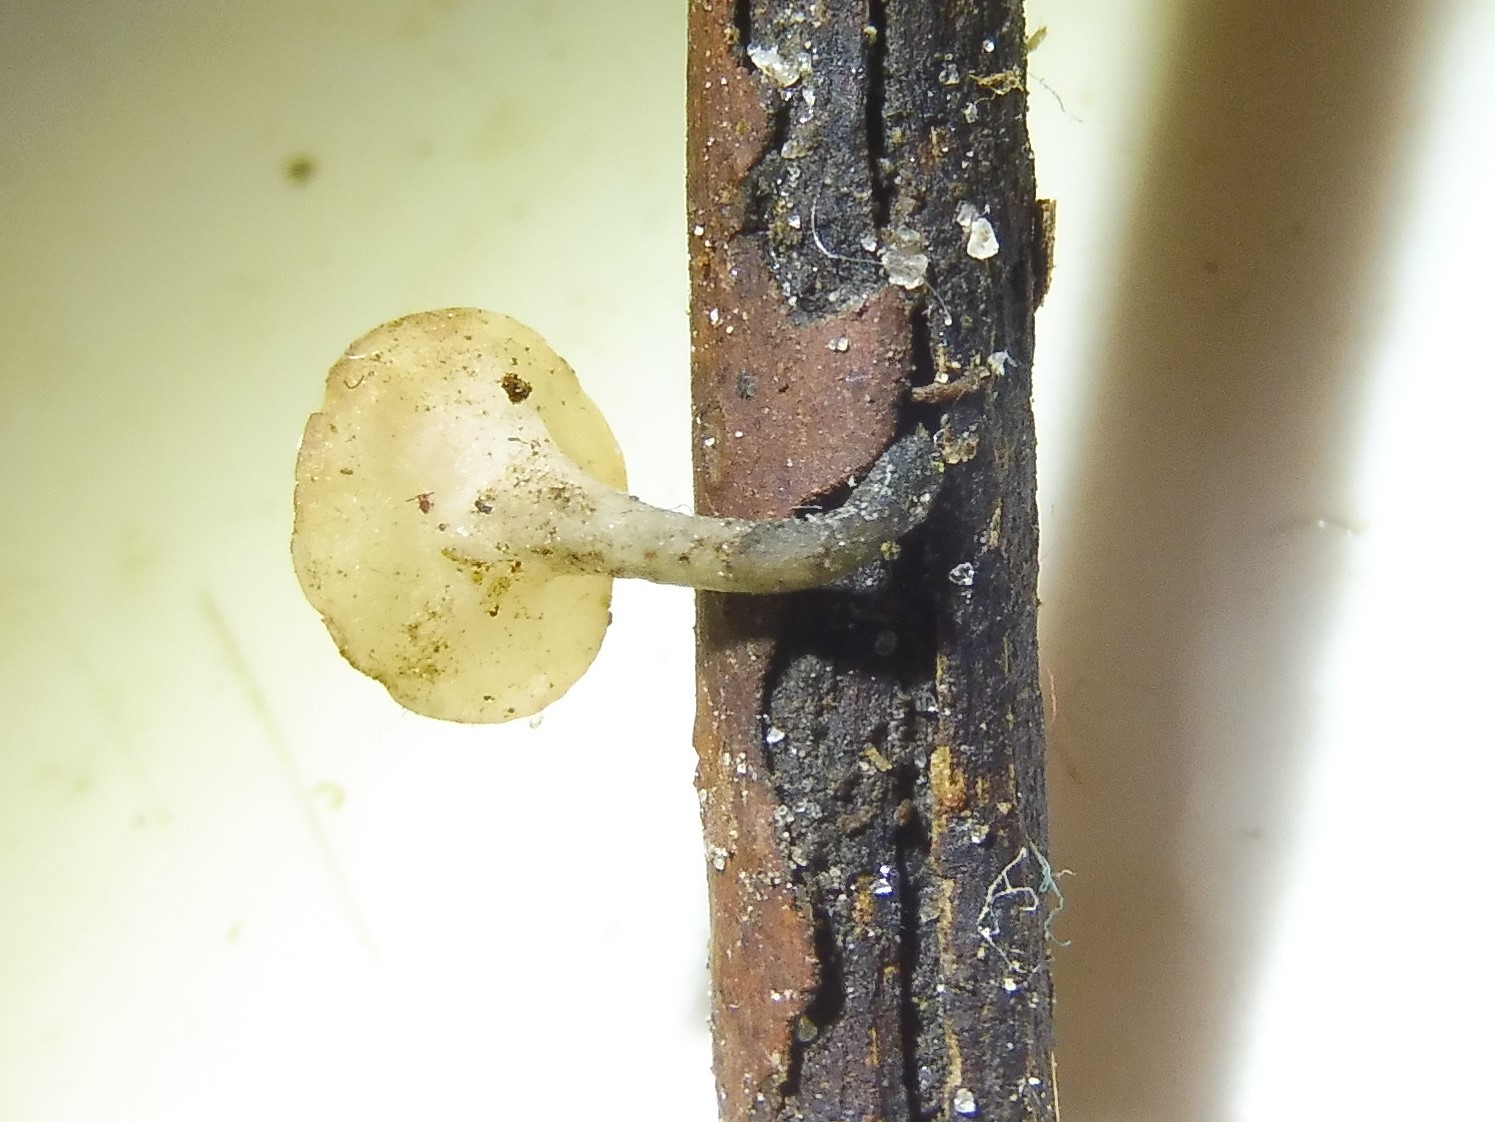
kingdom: Fungi
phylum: Ascomycota
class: Leotiomycetes
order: Helotiales
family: Helotiaceae
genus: Hymenoscyphus
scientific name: Hymenoscyphus vernus
